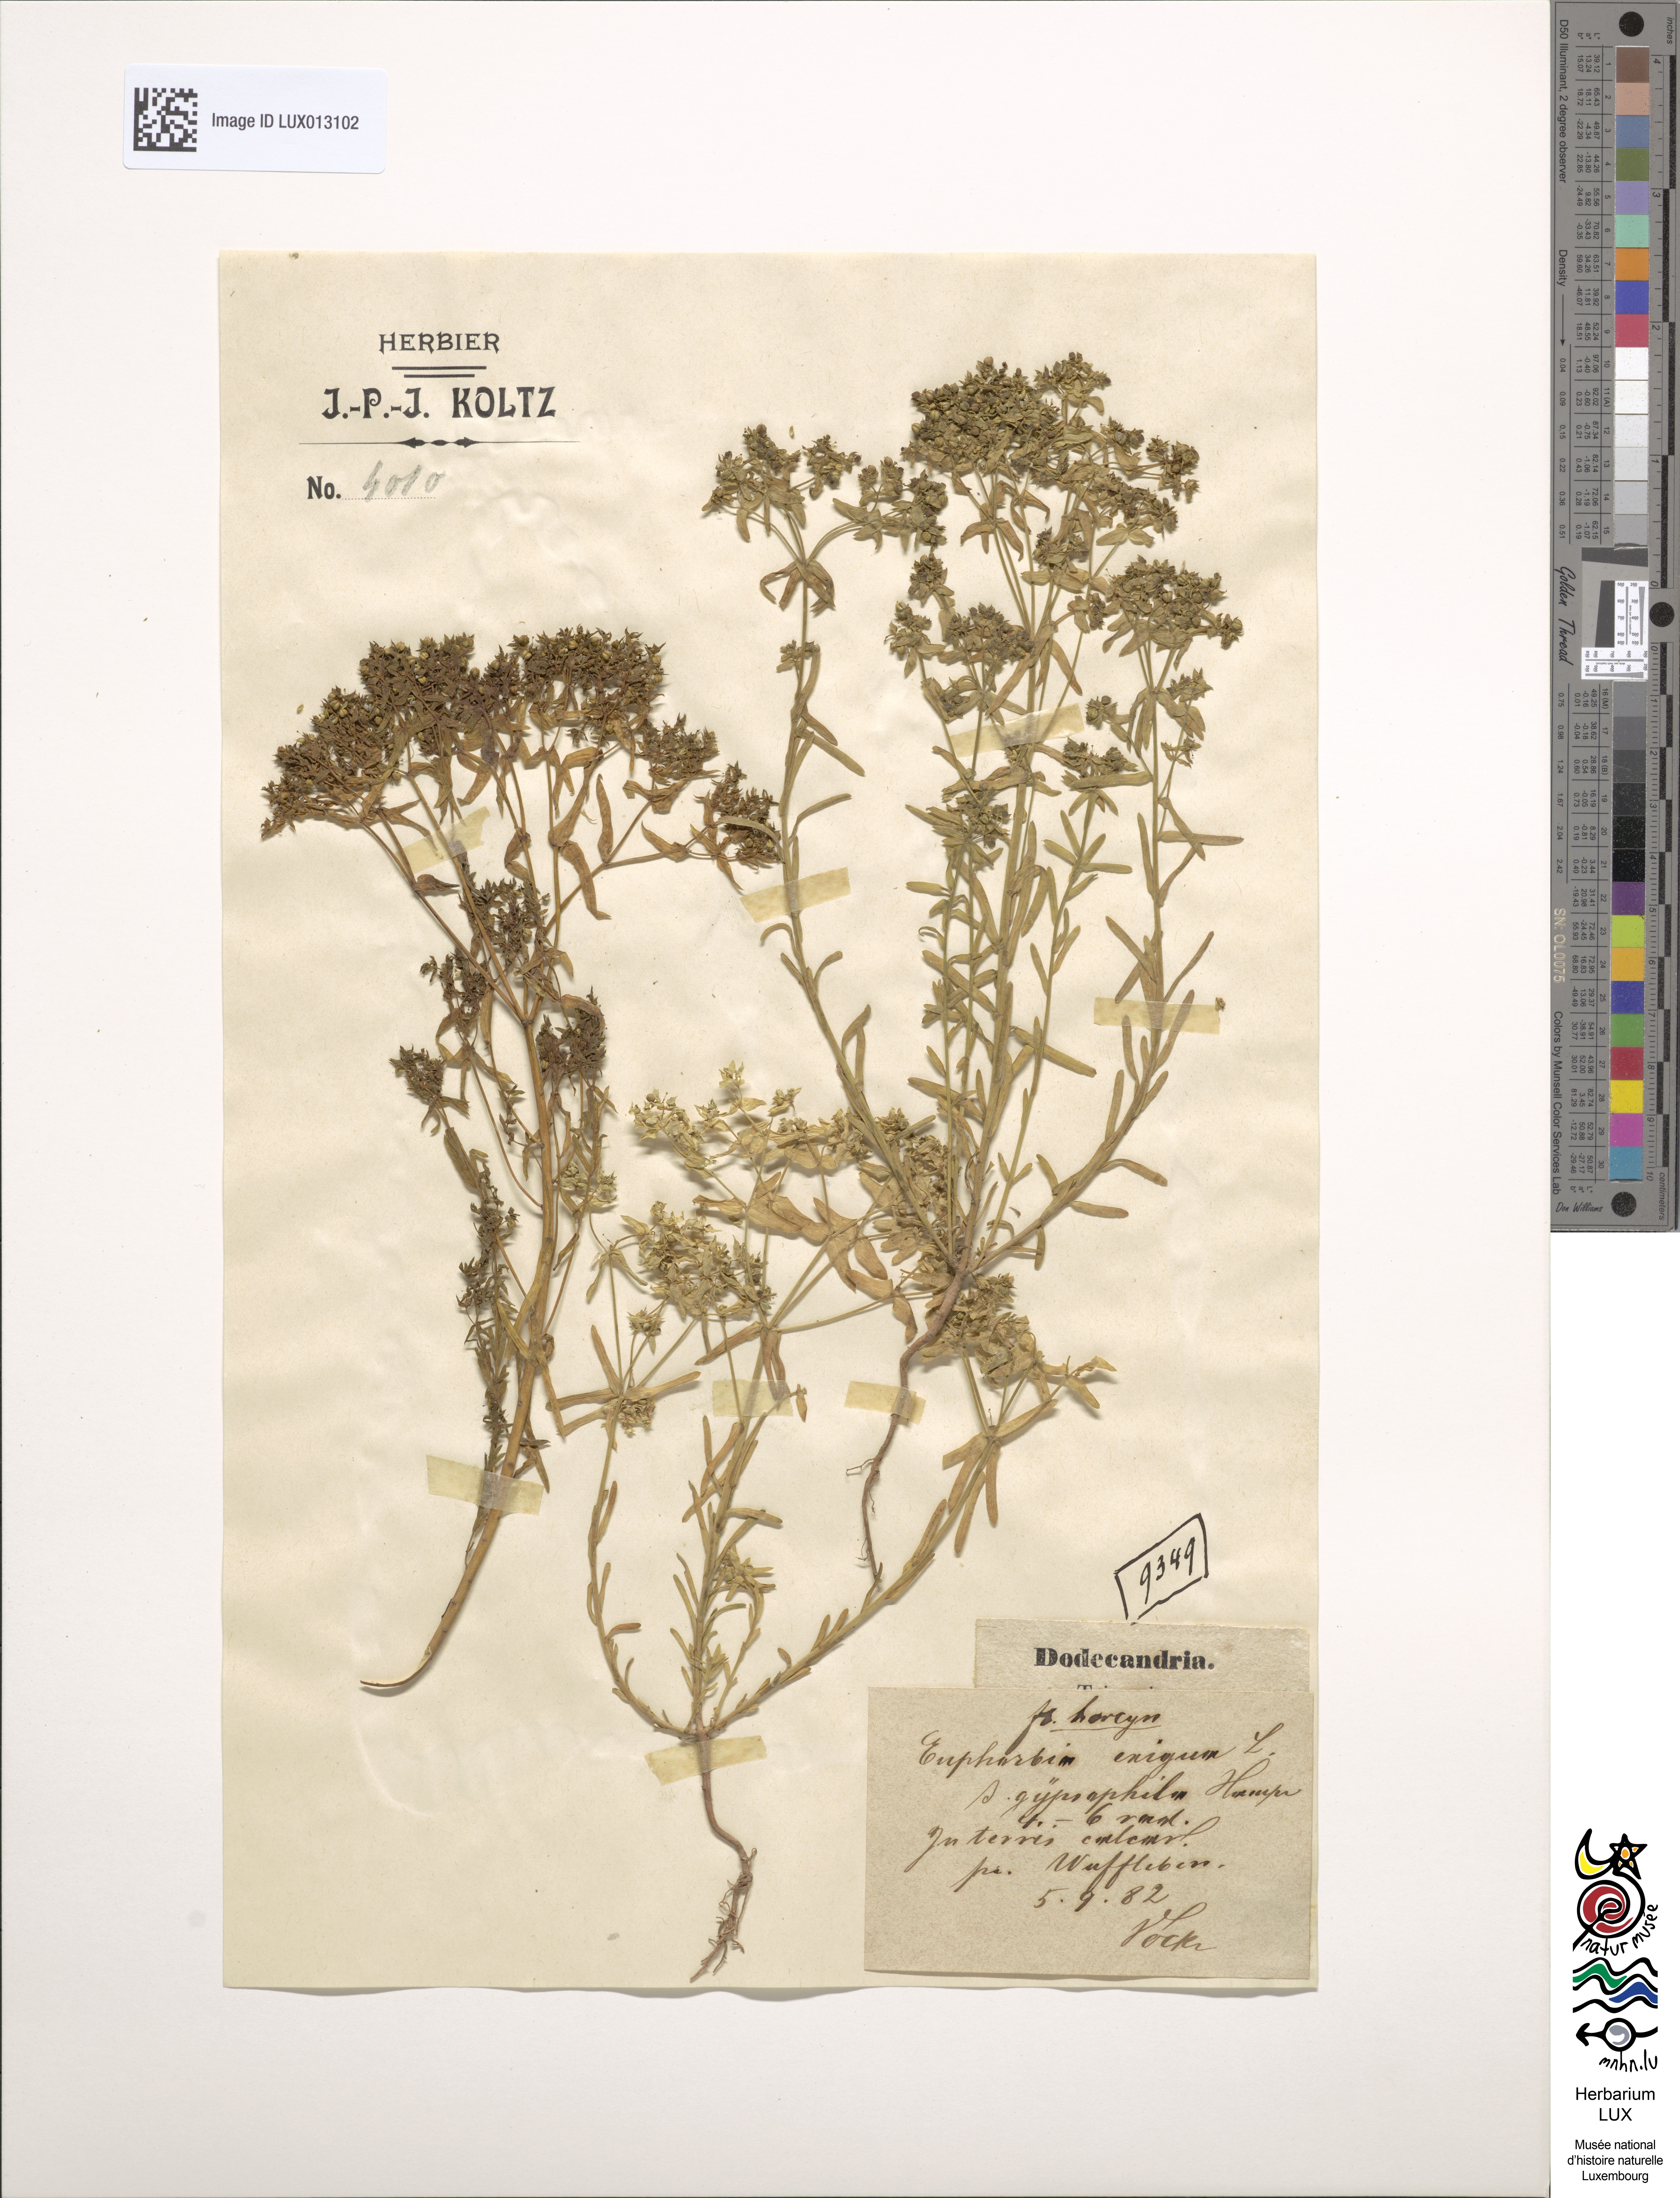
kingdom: Plantae
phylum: Tracheophyta
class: Magnoliopsida
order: Malpighiales
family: Euphorbiaceae
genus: Euphorbia
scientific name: Euphorbia exigua
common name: Dwarf spurge
